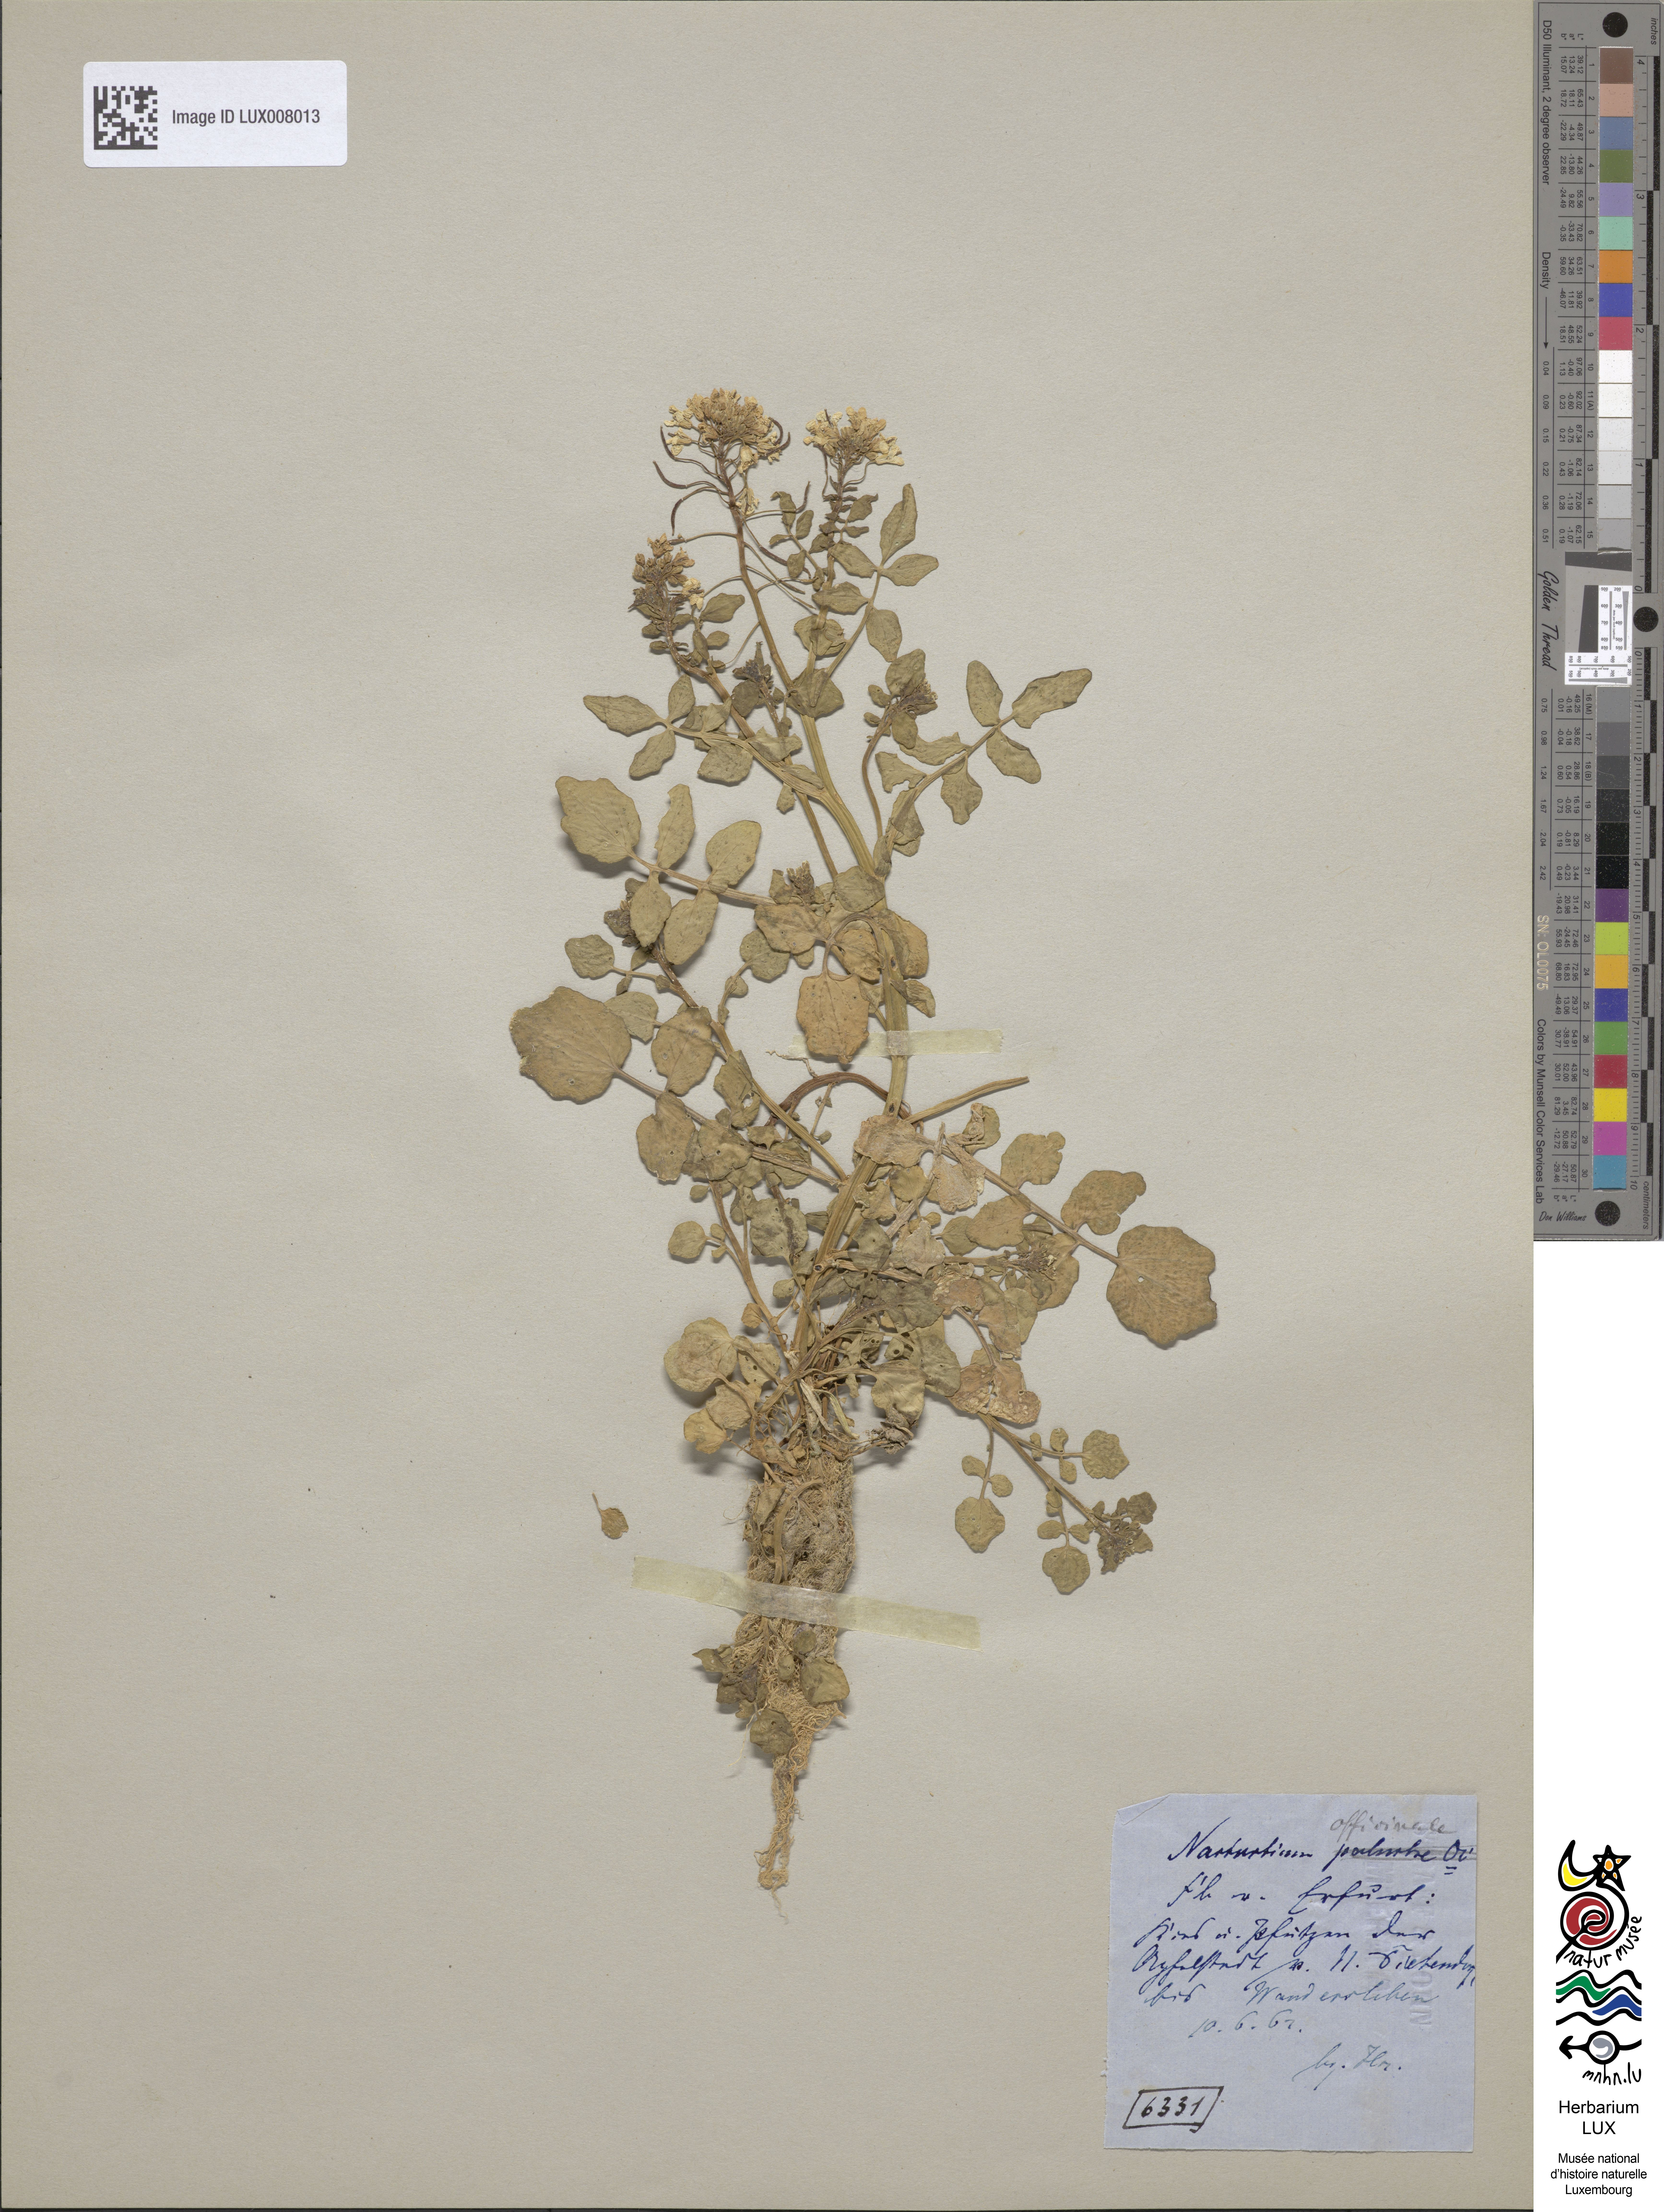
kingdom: Plantae
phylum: Tracheophyta
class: Magnoliopsida
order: Brassicales
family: Brassicaceae
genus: Nasturtium
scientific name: Nasturtium officinale
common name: Watercress
